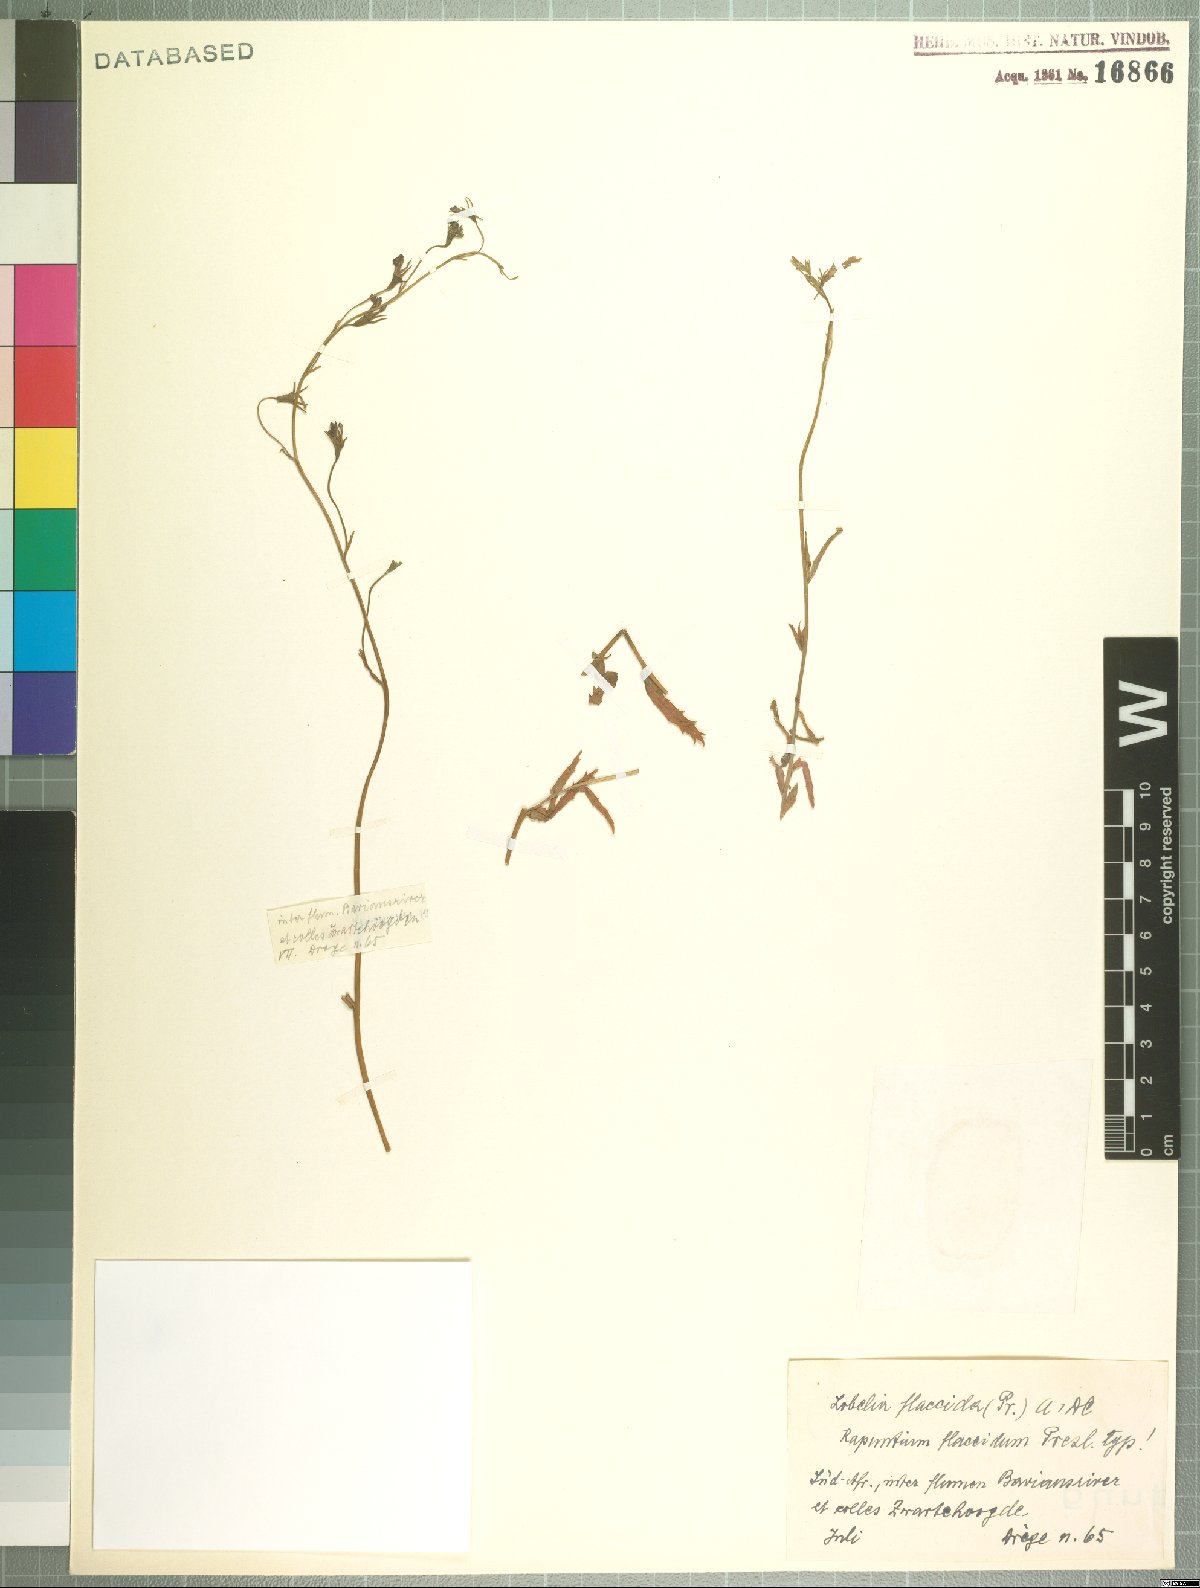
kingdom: Plantae
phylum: Tracheophyta
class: Magnoliopsida
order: Asterales
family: Campanulaceae
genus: Lobelia
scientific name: Lobelia flaccida
